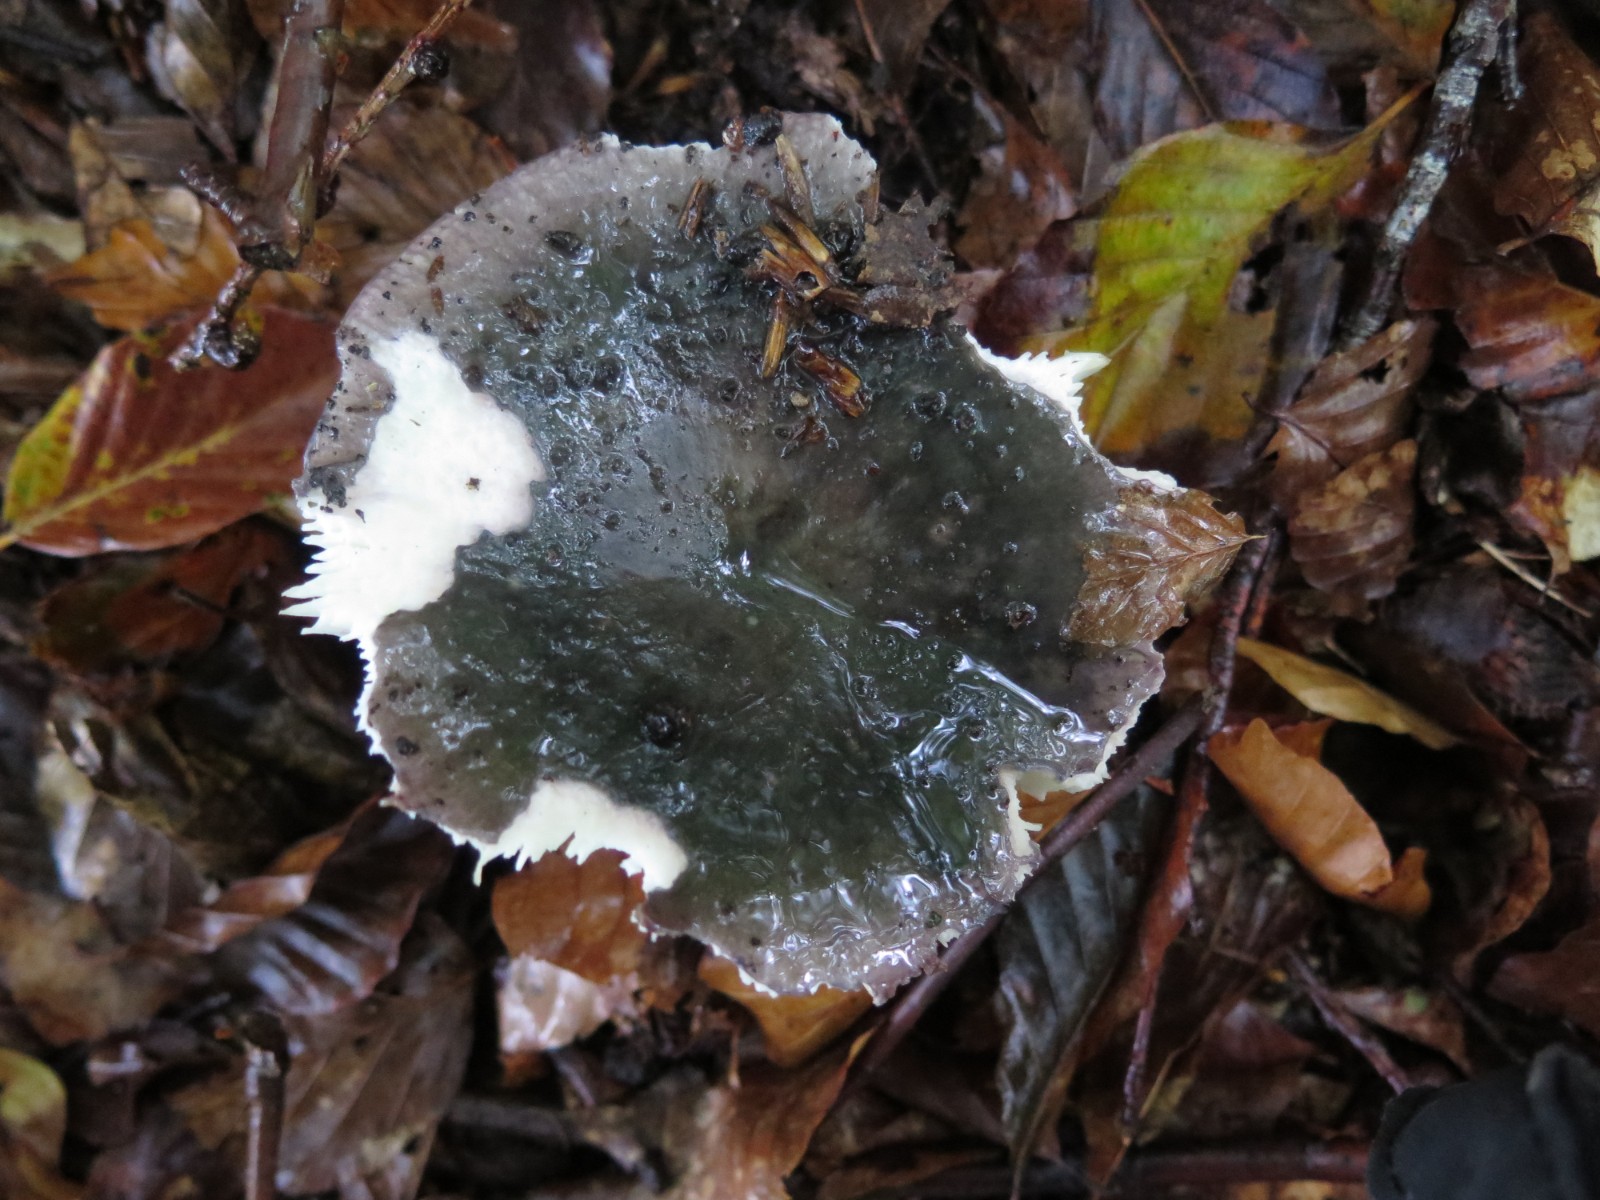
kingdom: Fungi
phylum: Basidiomycota
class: Agaricomycetes
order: Russulales
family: Russulaceae
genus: Russula
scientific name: Russula cyanoxantha
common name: broget skørhat
